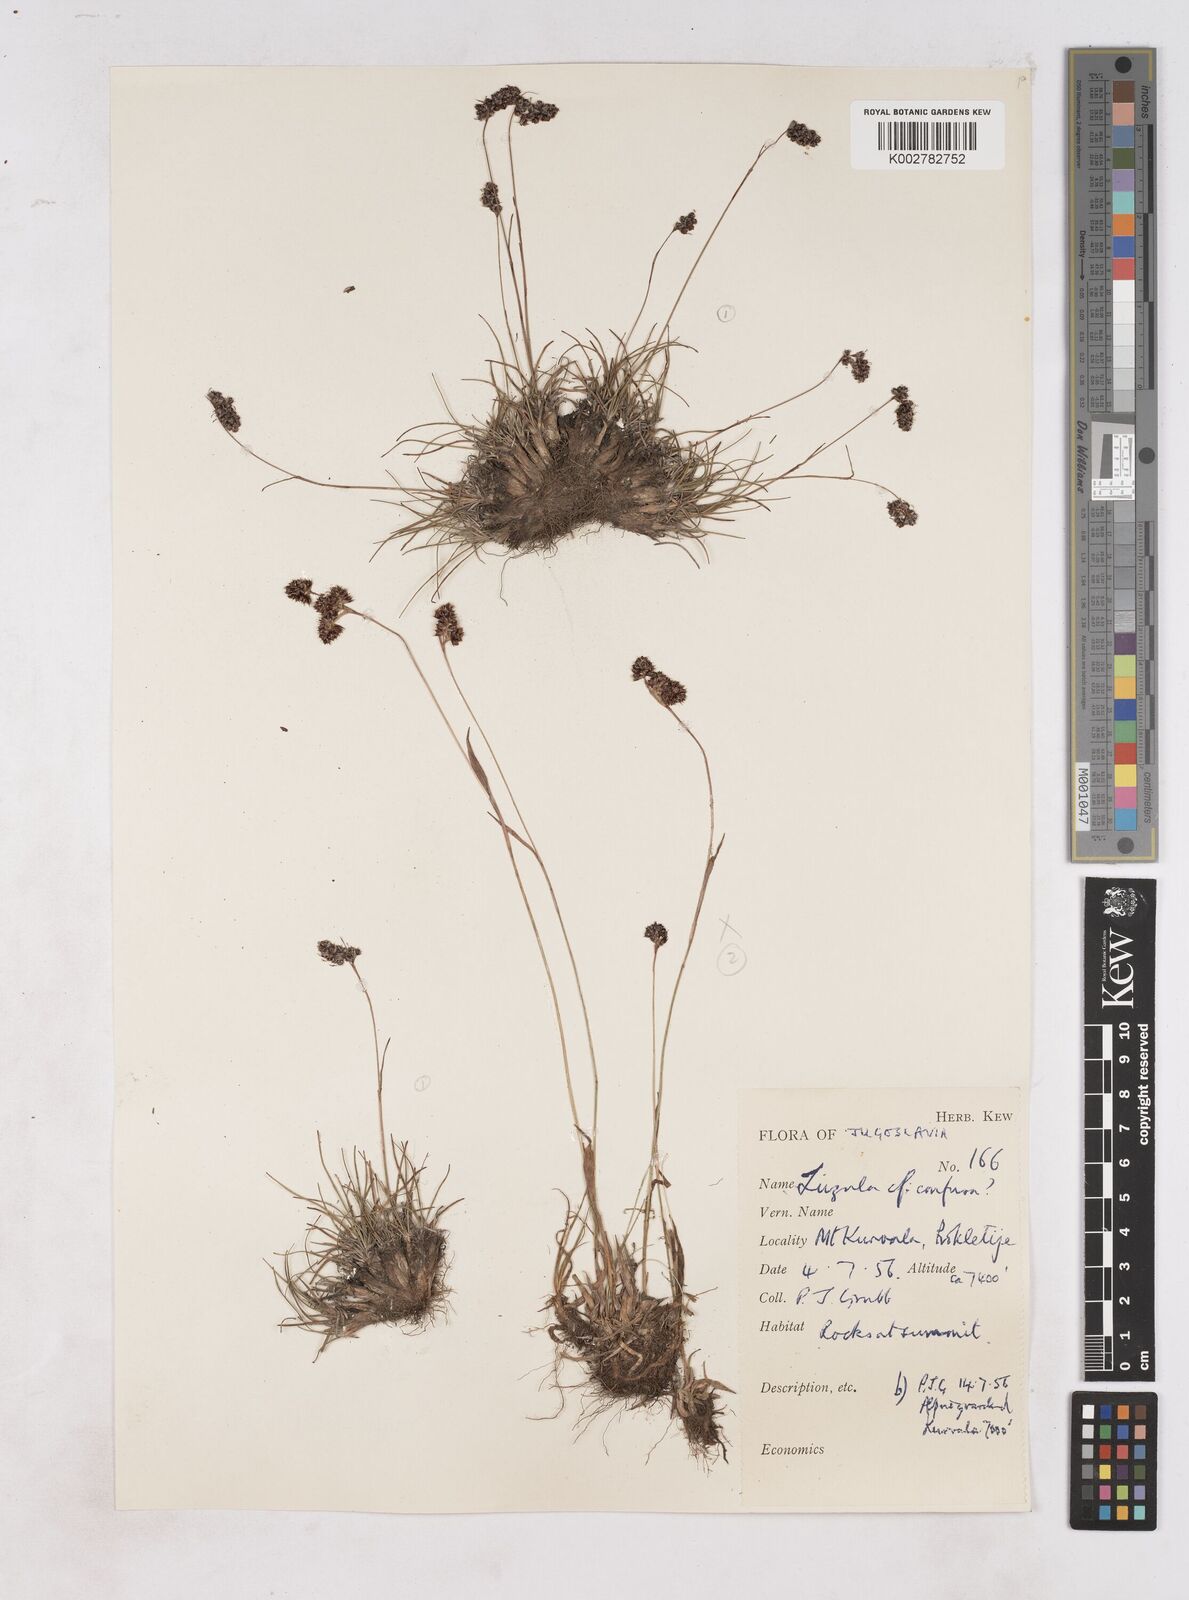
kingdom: Plantae
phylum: Tracheophyta
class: Liliopsida
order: Poales
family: Juncaceae
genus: Luzula
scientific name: Luzula spicata
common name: Spiked wood-rush
